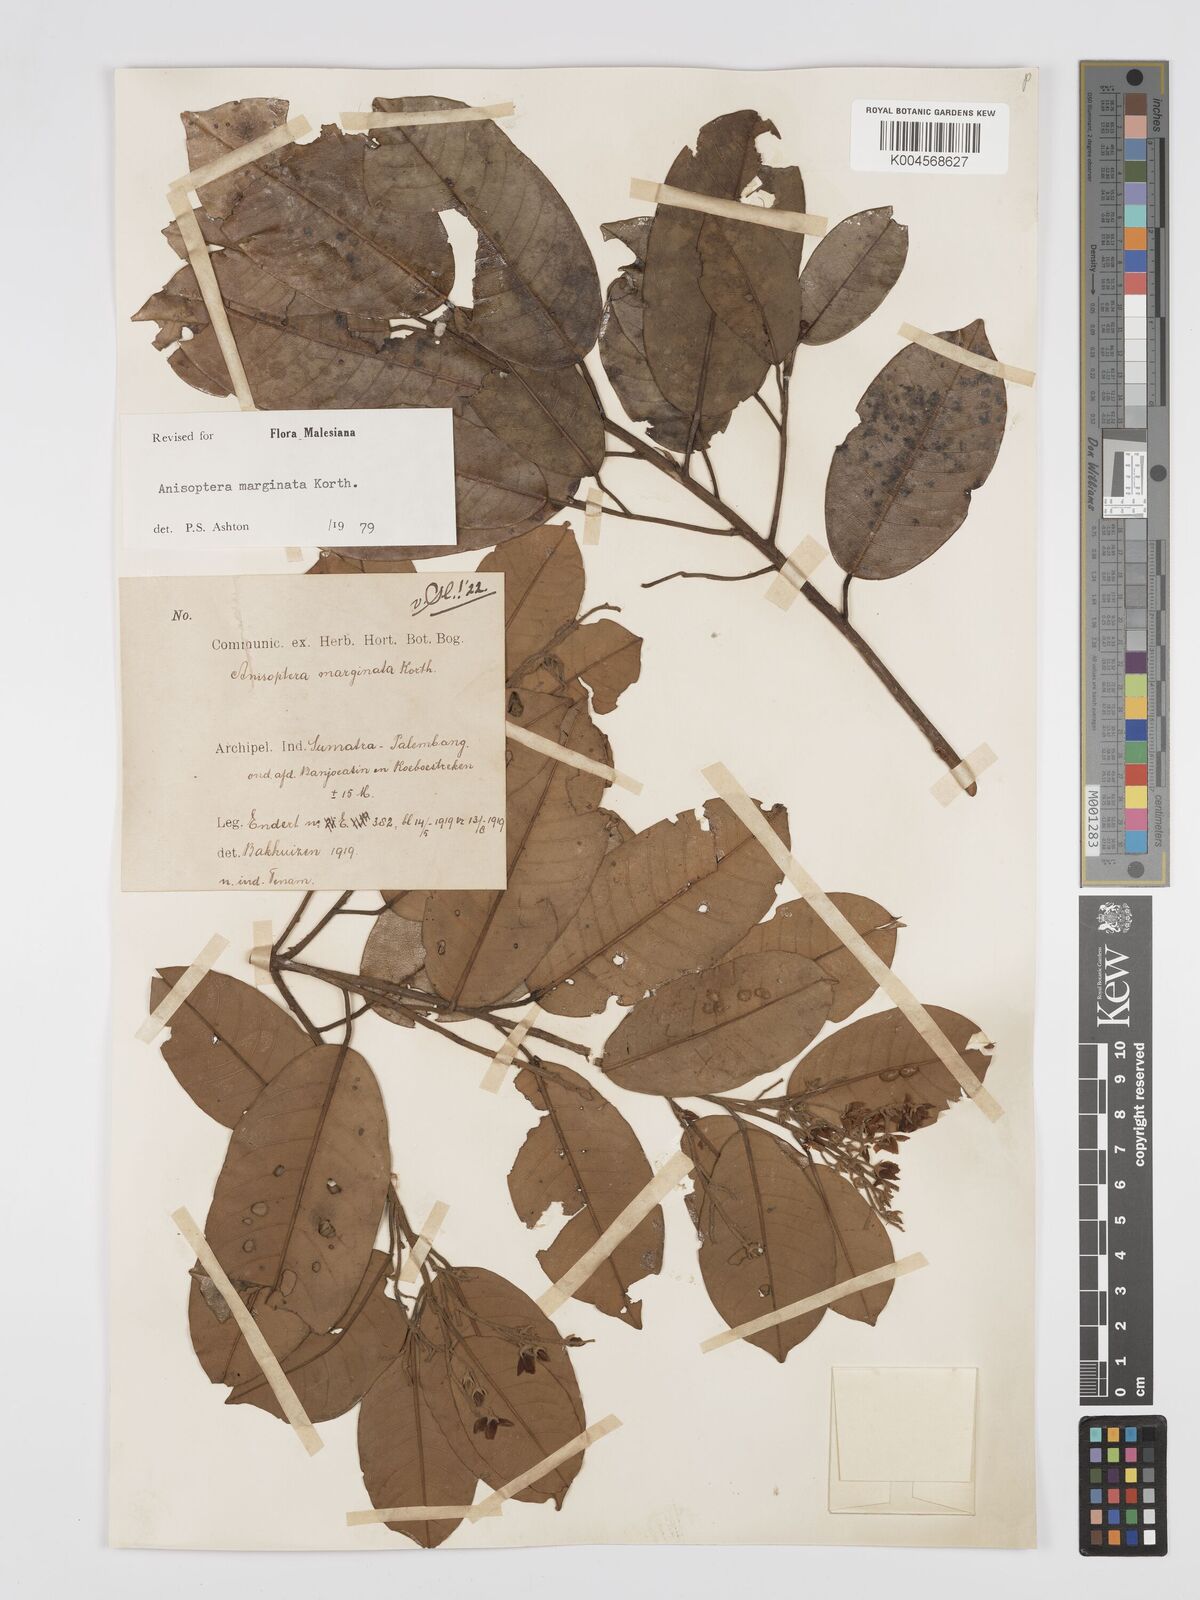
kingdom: Plantae
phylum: Tracheophyta
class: Magnoliopsida
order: Malvales
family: Dipterocarpaceae
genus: Anisoptera
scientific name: Anisoptera marginata
